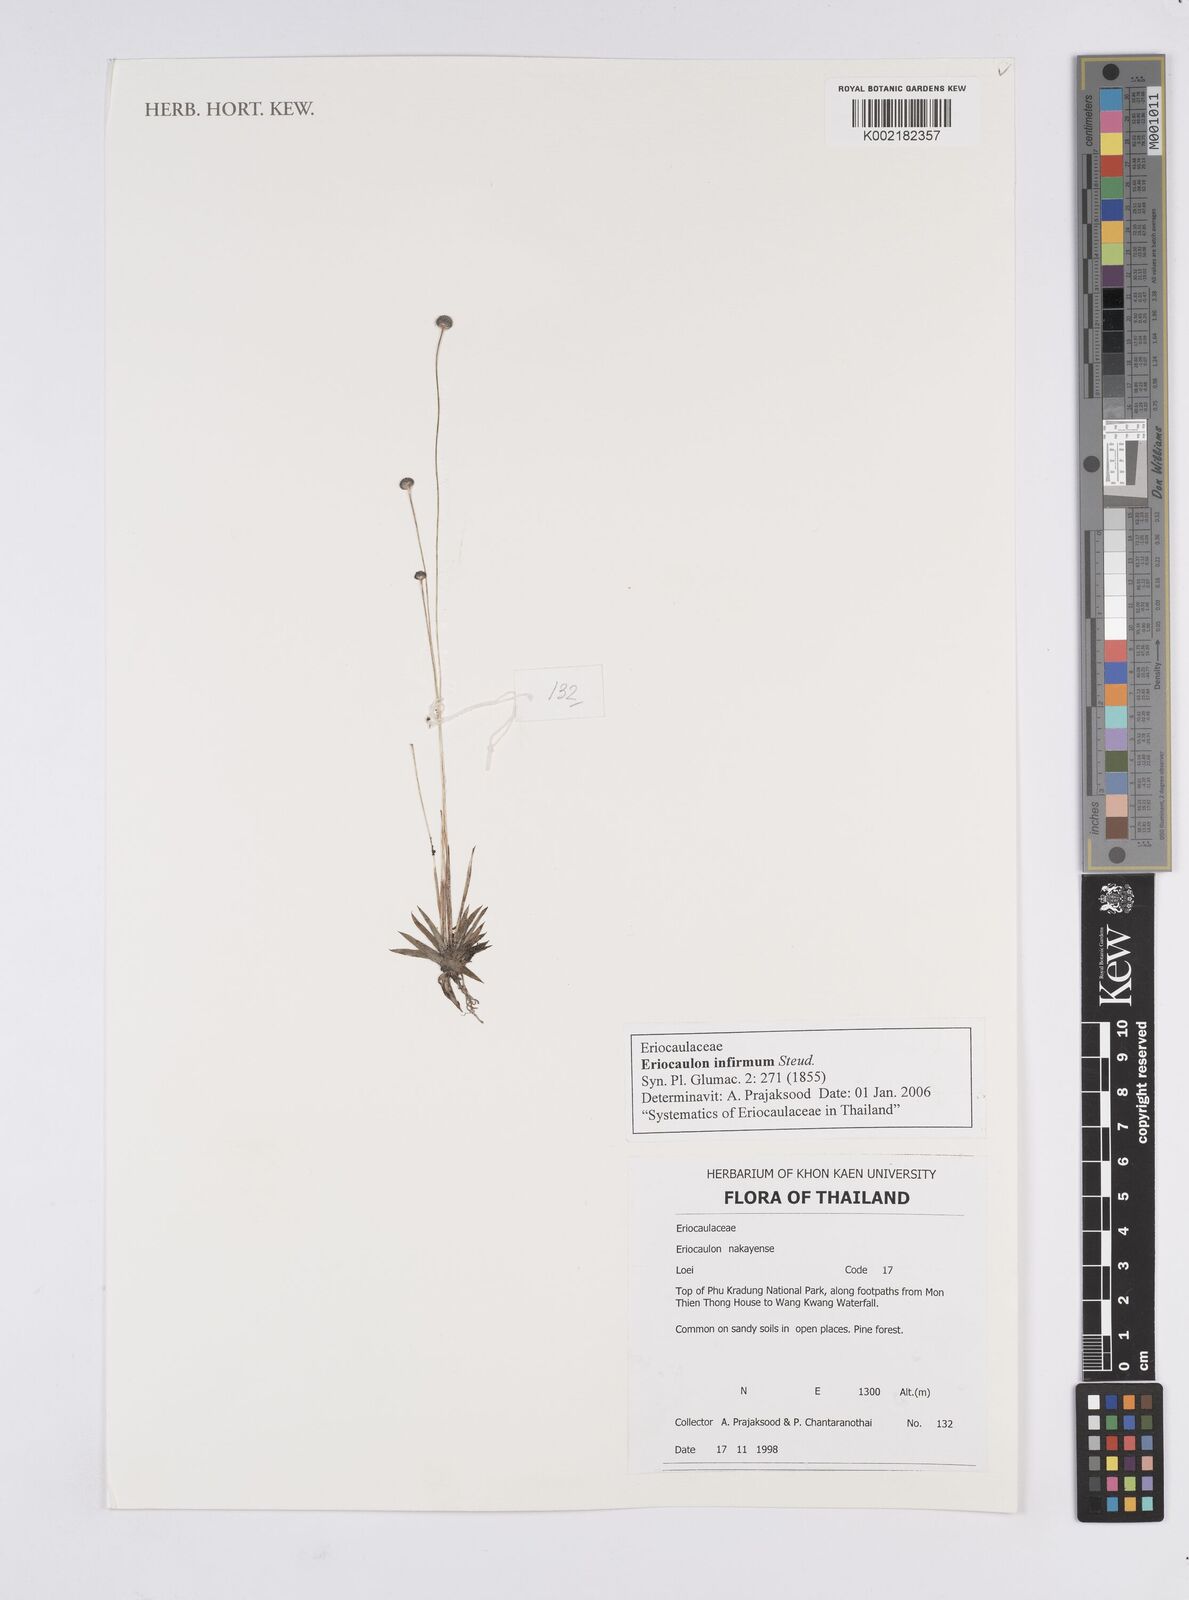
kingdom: Plantae
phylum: Tracheophyta
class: Liliopsida
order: Poales
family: Eriocaulaceae
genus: Eriocaulon
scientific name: Eriocaulon infirmum
